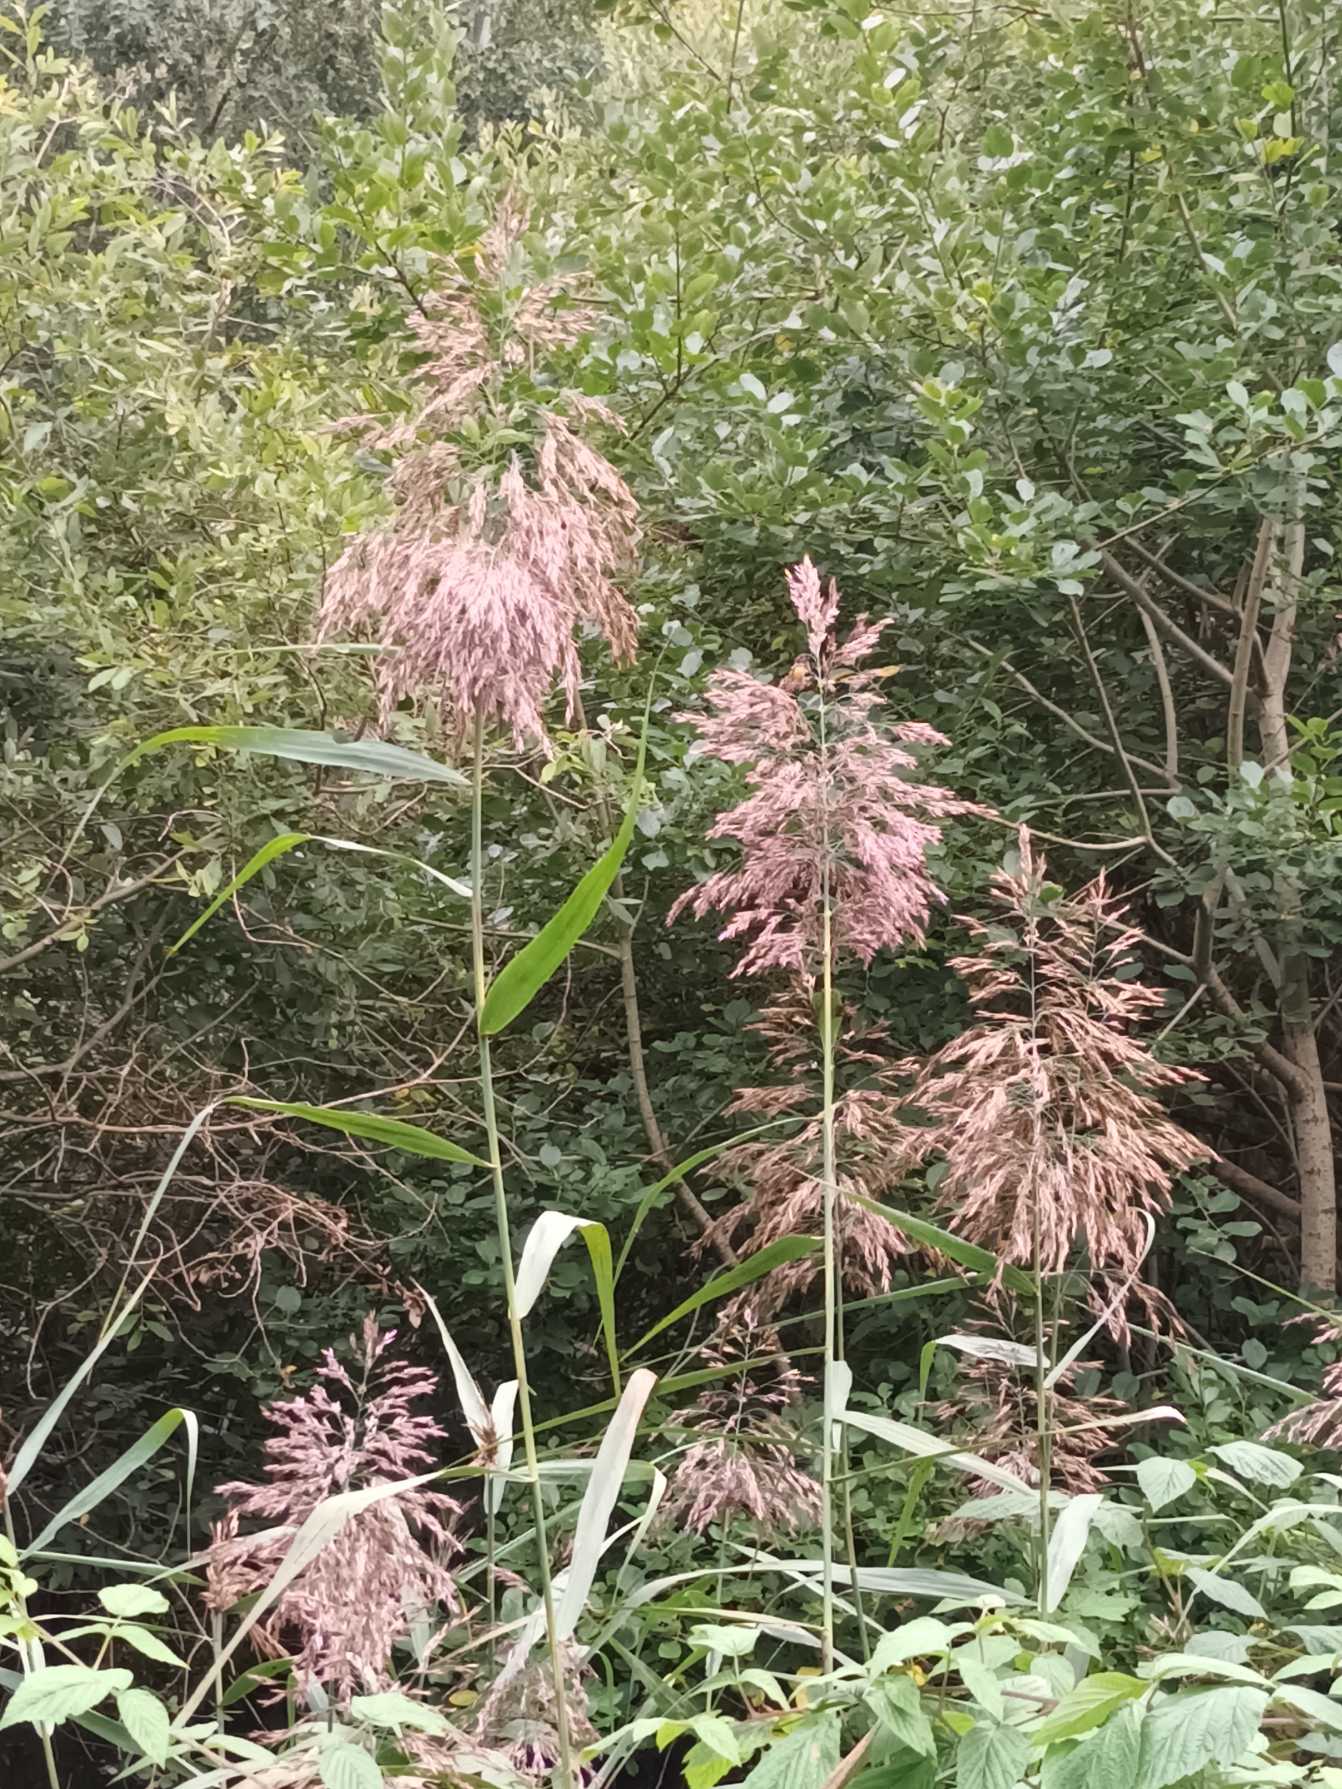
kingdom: Plantae
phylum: Tracheophyta
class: Liliopsida
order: Poales
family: Poaceae
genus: Phragmites
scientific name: Phragmites australis
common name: Tagrør
